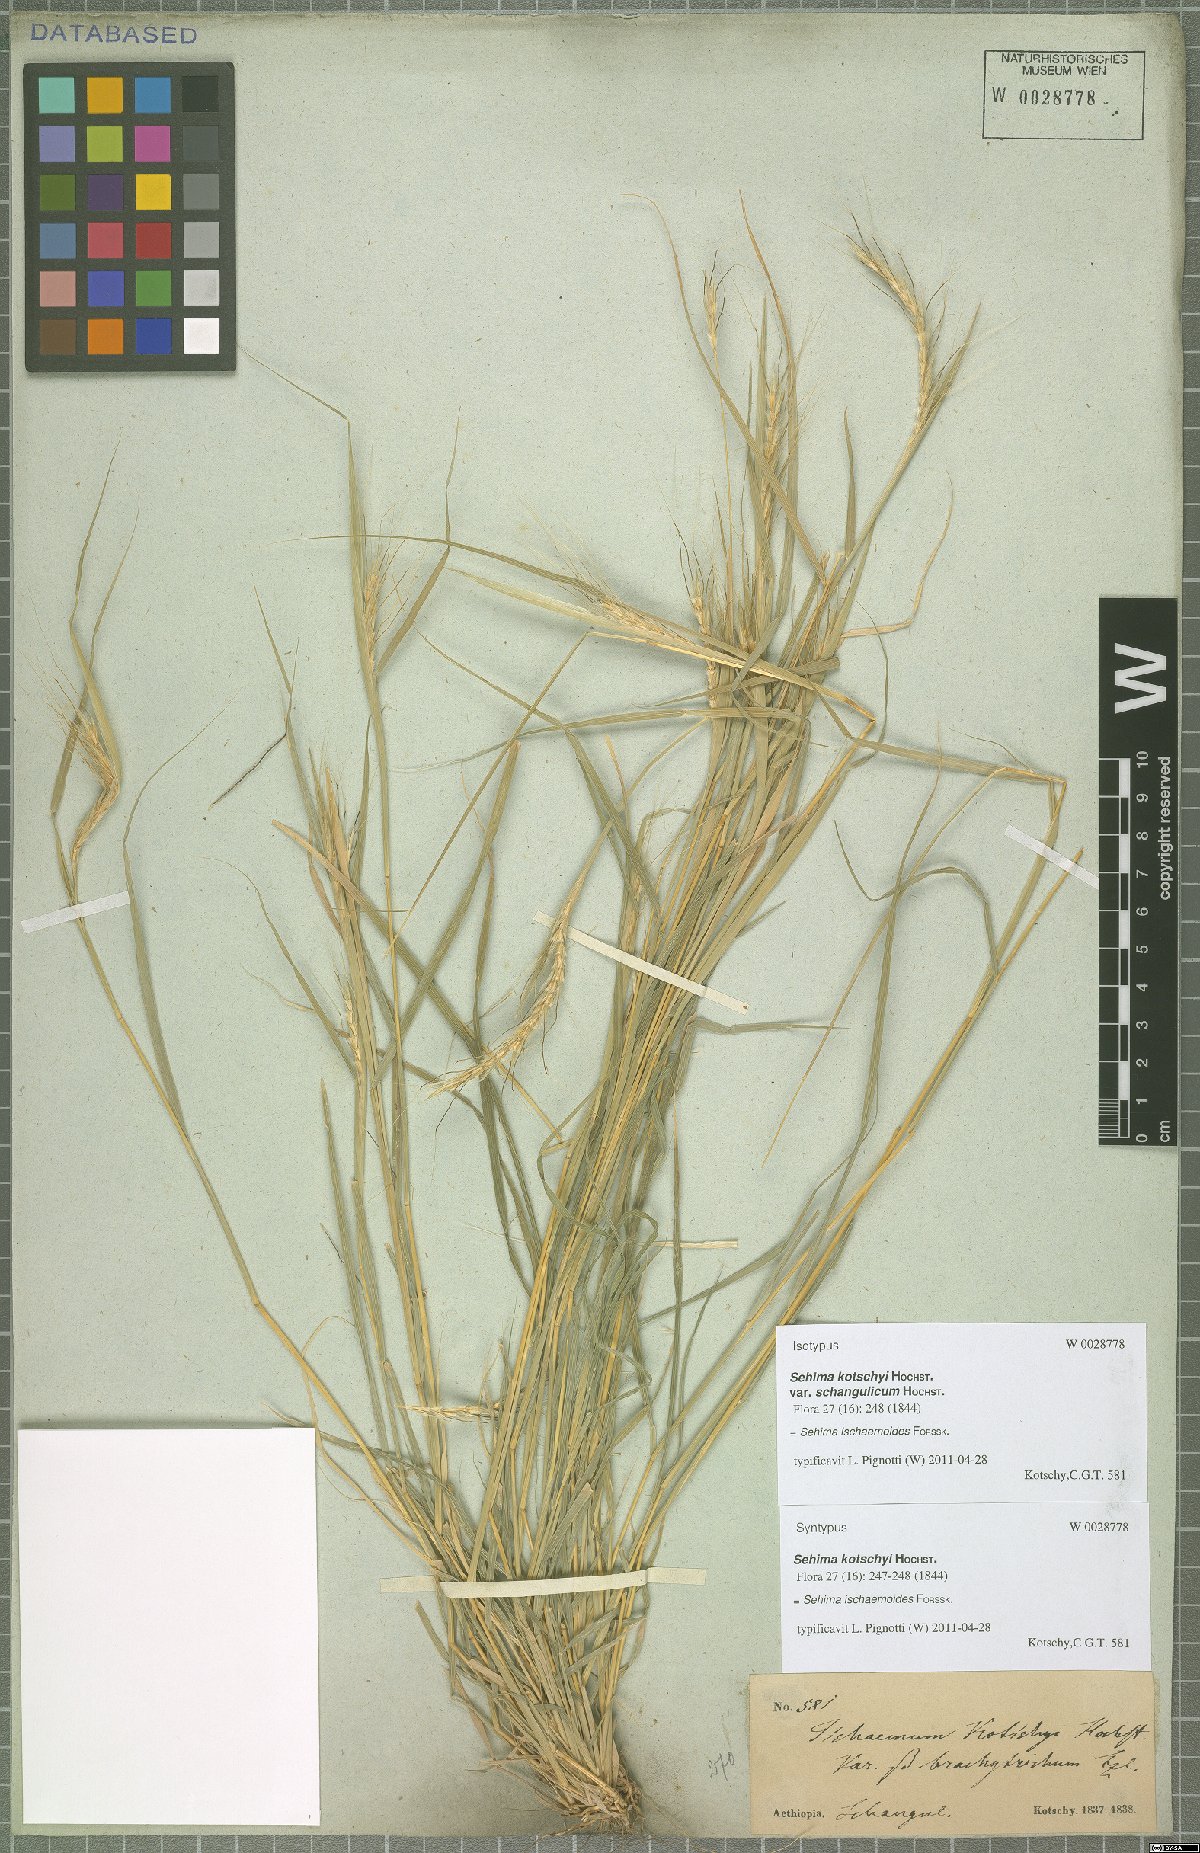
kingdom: Plantae
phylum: Tracheophyta
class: Liliopsida
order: Poales
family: Poaceae
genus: Sehima
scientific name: Sehima ischaemoides
